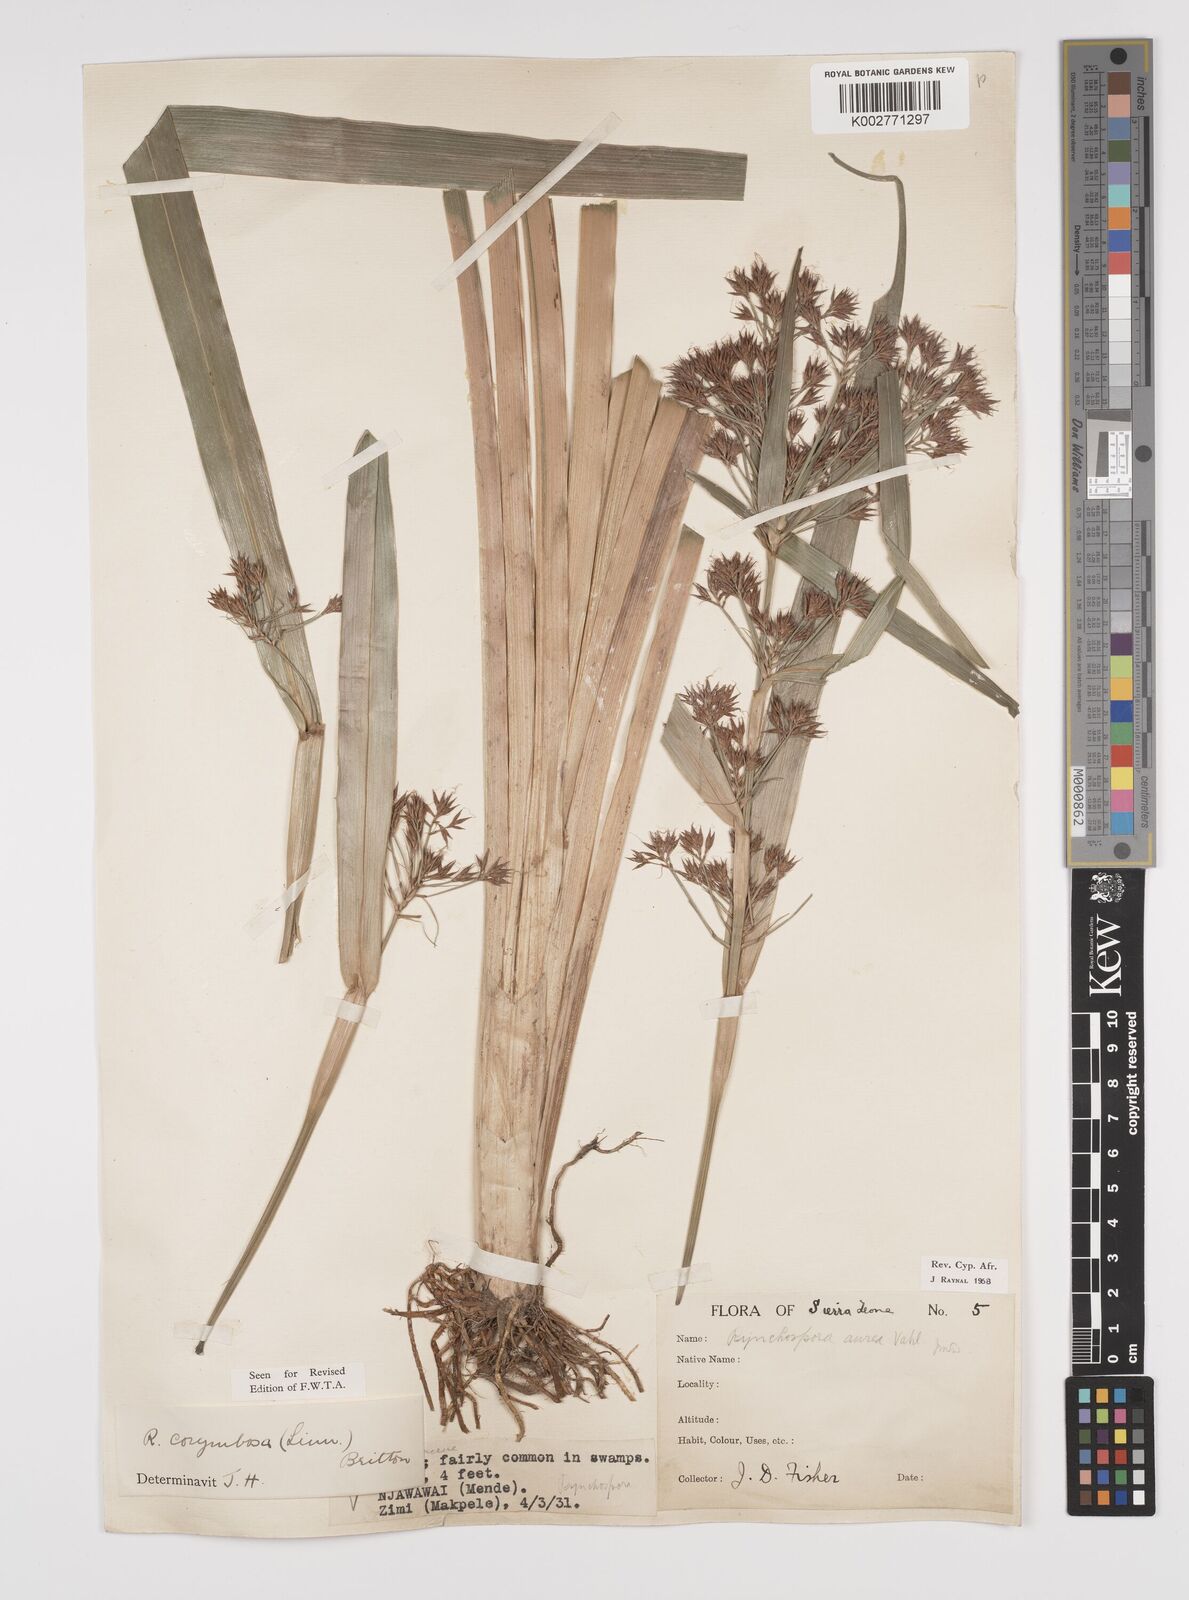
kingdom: Plantae
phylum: Tracheophyta
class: Liliopsida
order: Poales
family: Cyperaceae
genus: Rhynchospora
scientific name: Rhynchospora corymbosa
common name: Golden beak sedge
